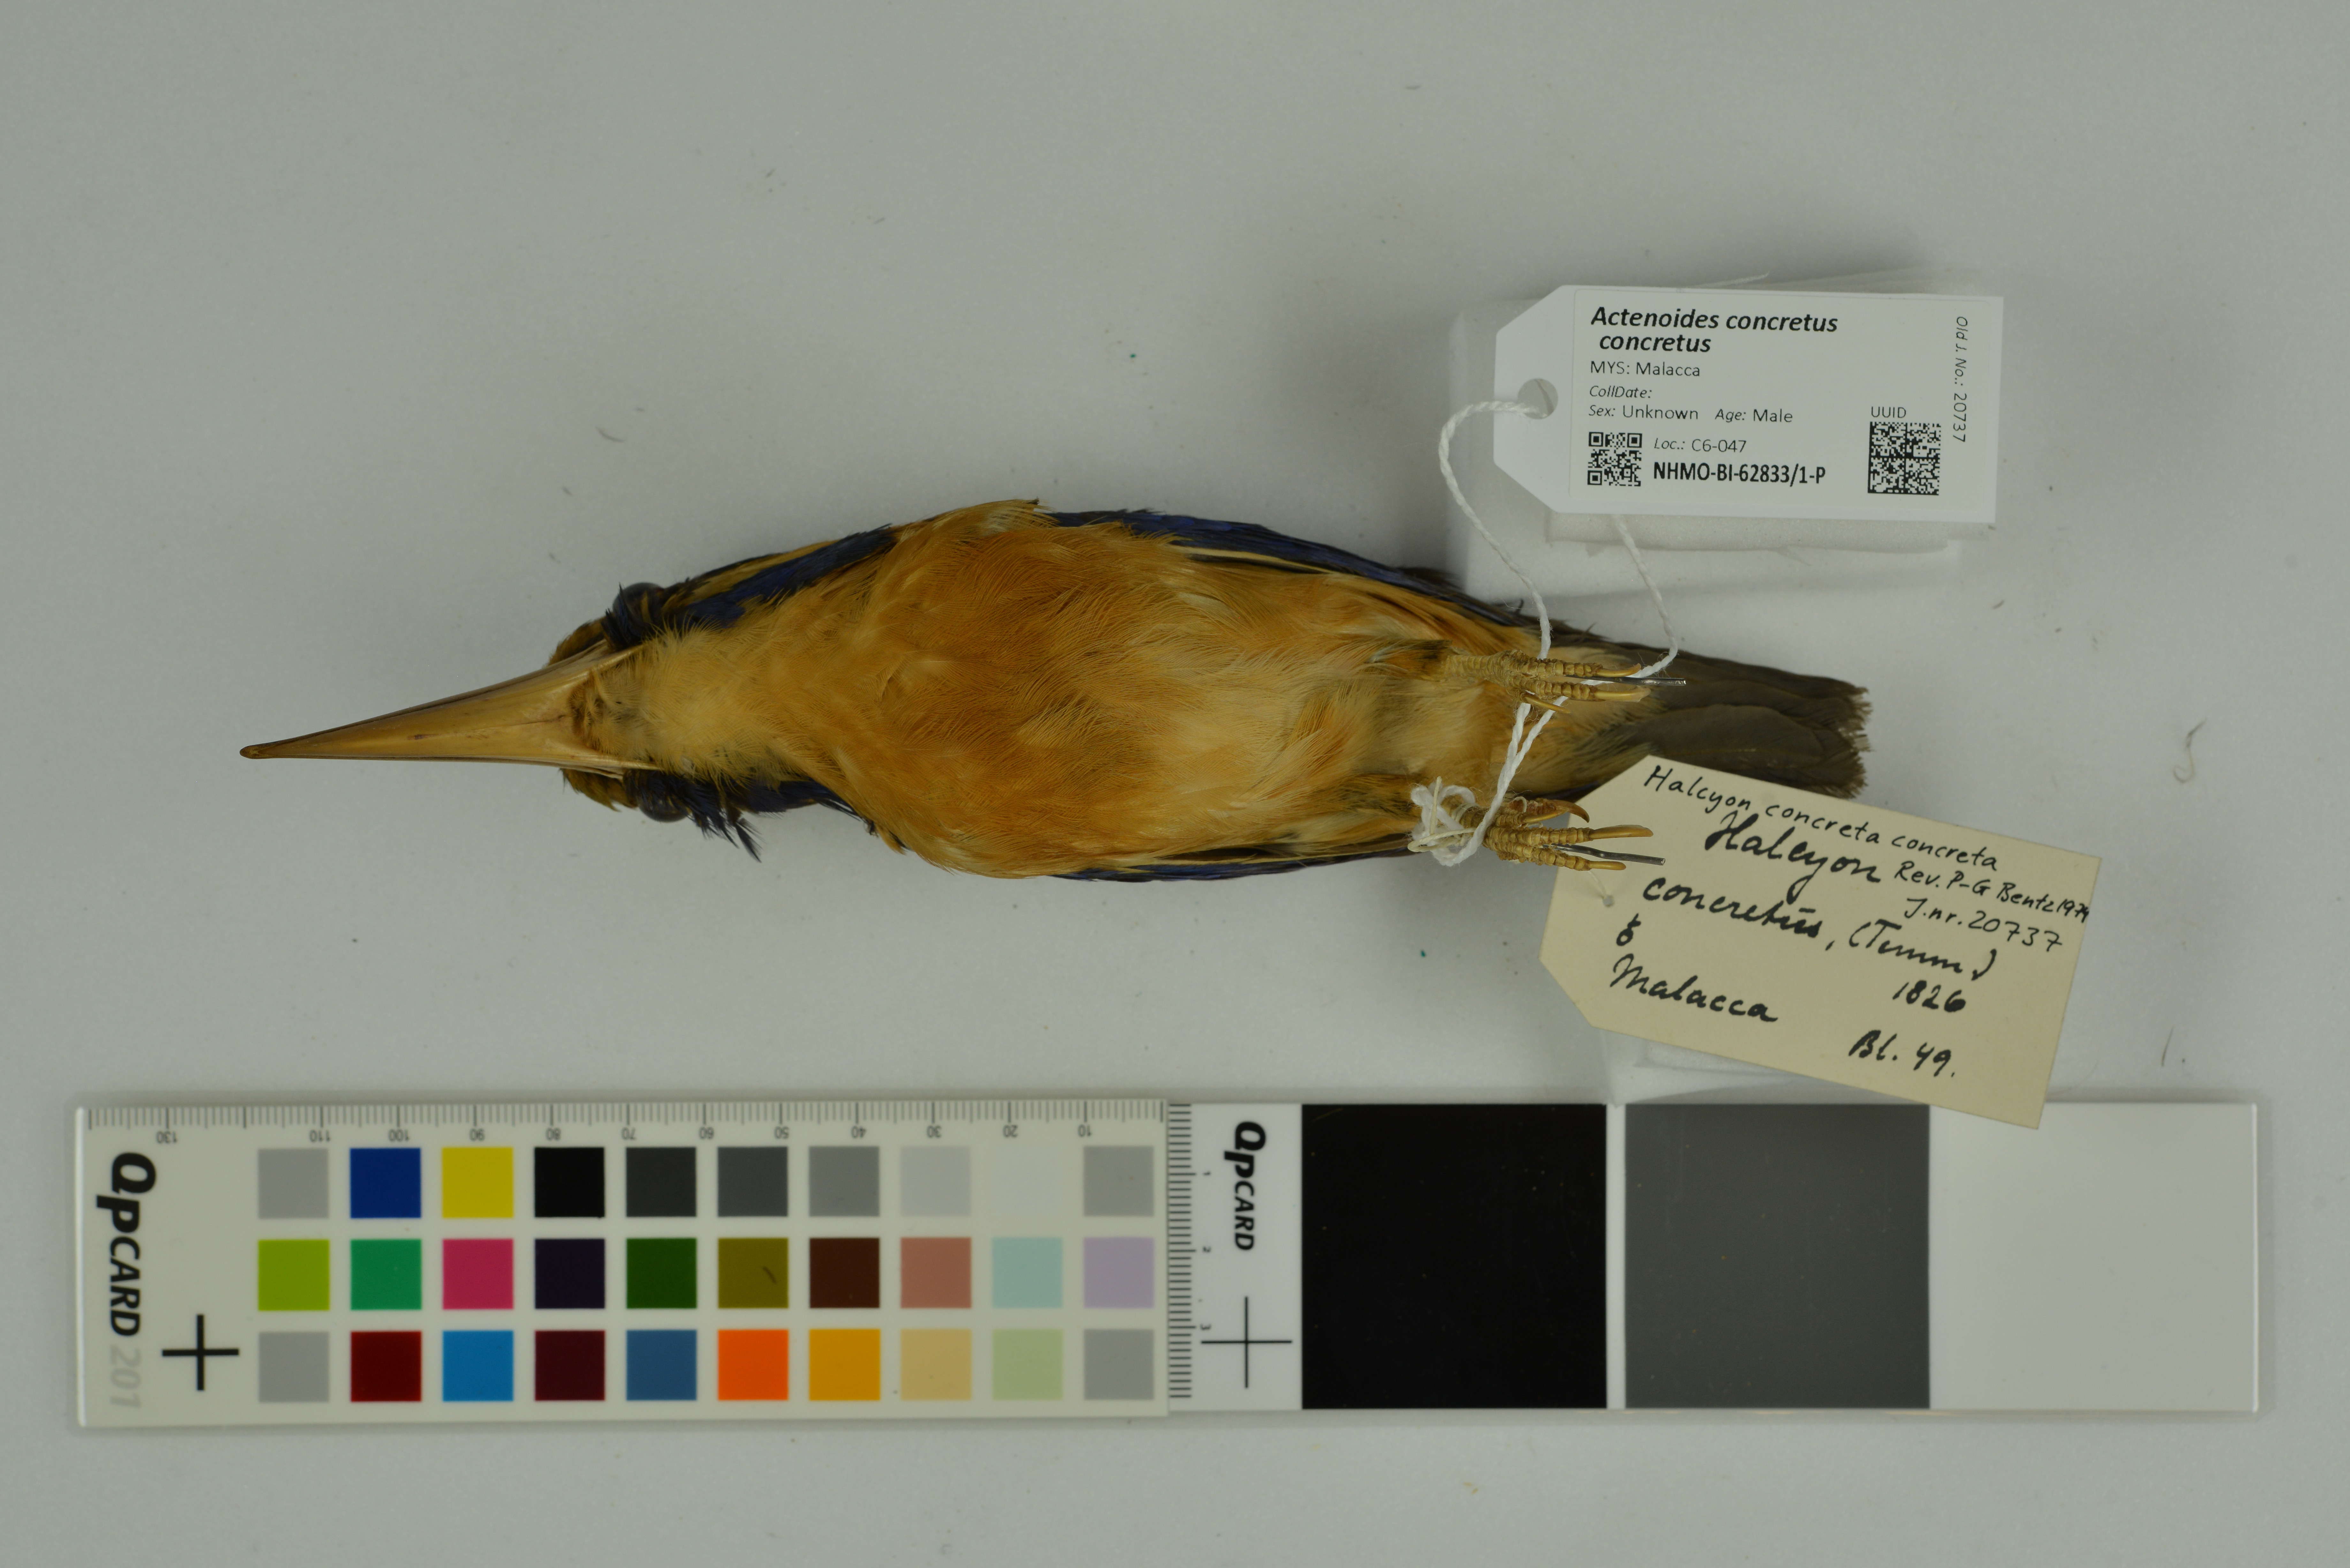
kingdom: Animalia
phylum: Chordata
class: Aves
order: Coraciiformes
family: Alcedinidae
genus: Actenoides
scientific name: Actenoides concretus
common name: Rufous-collared kingfisher
